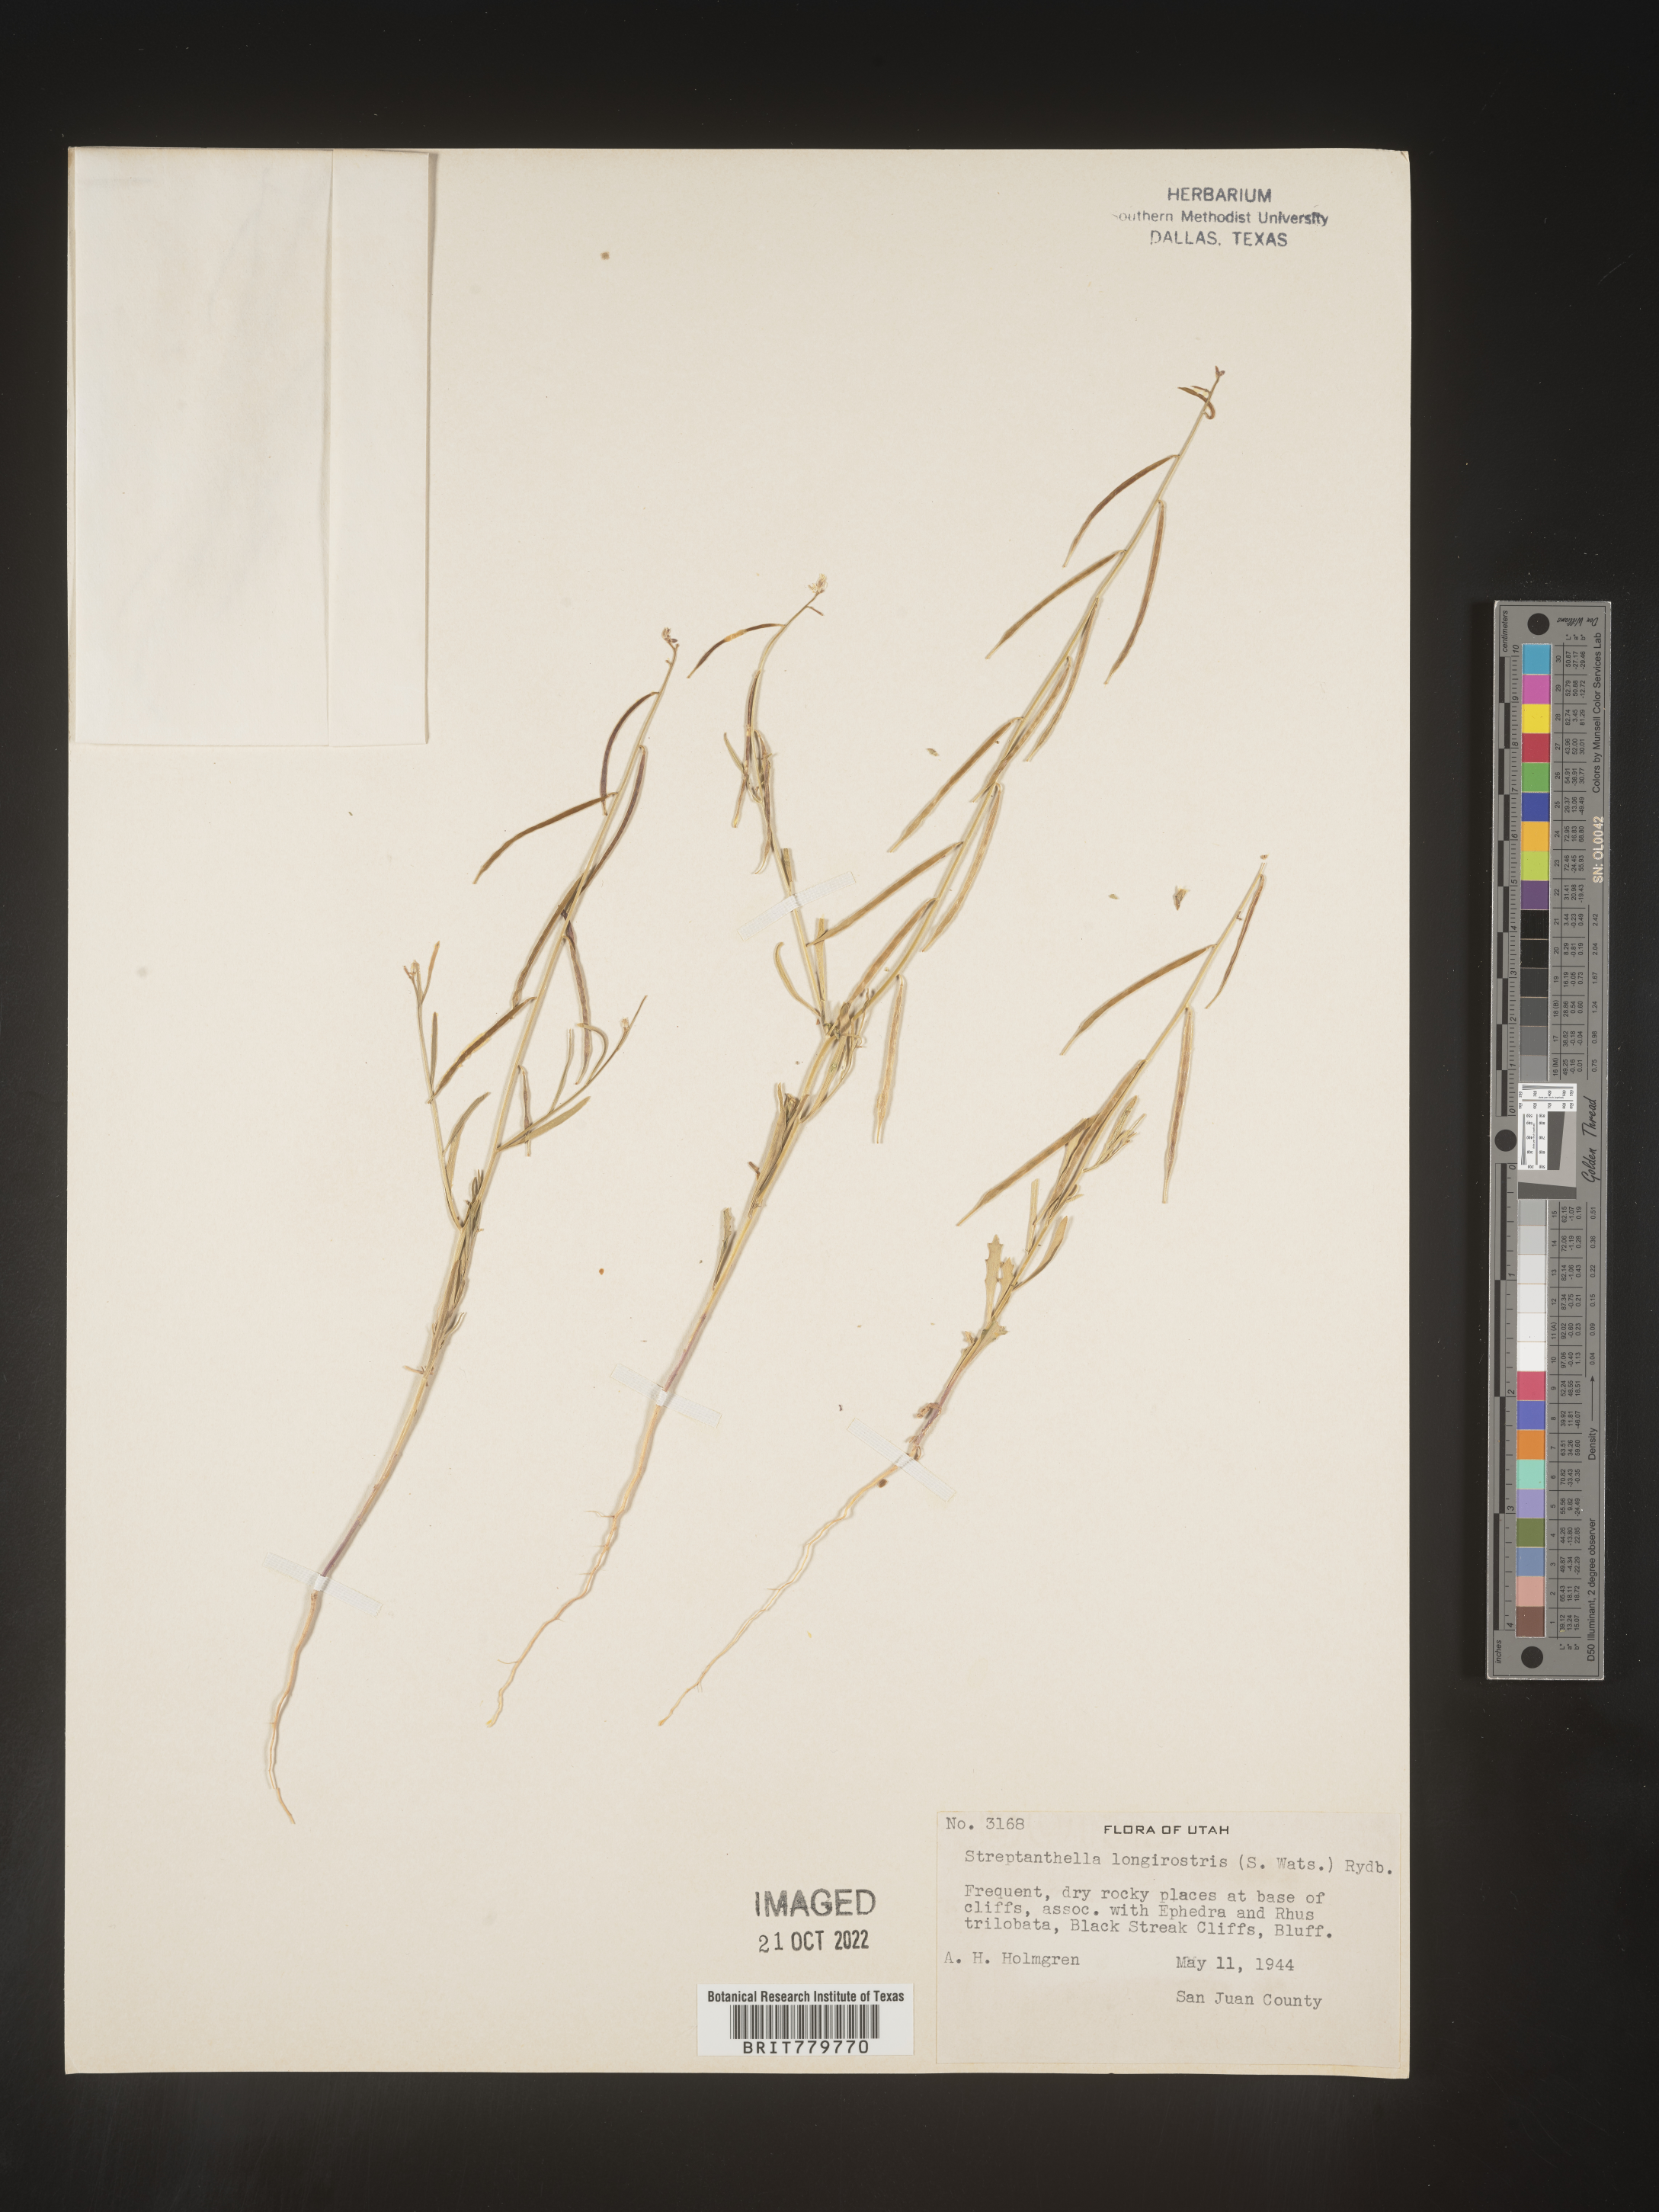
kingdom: Plantae
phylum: Tracheophyta
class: Magnoliopsida
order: Brassicales
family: Brassicaceae
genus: Streptanthus
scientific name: Streptanthus
